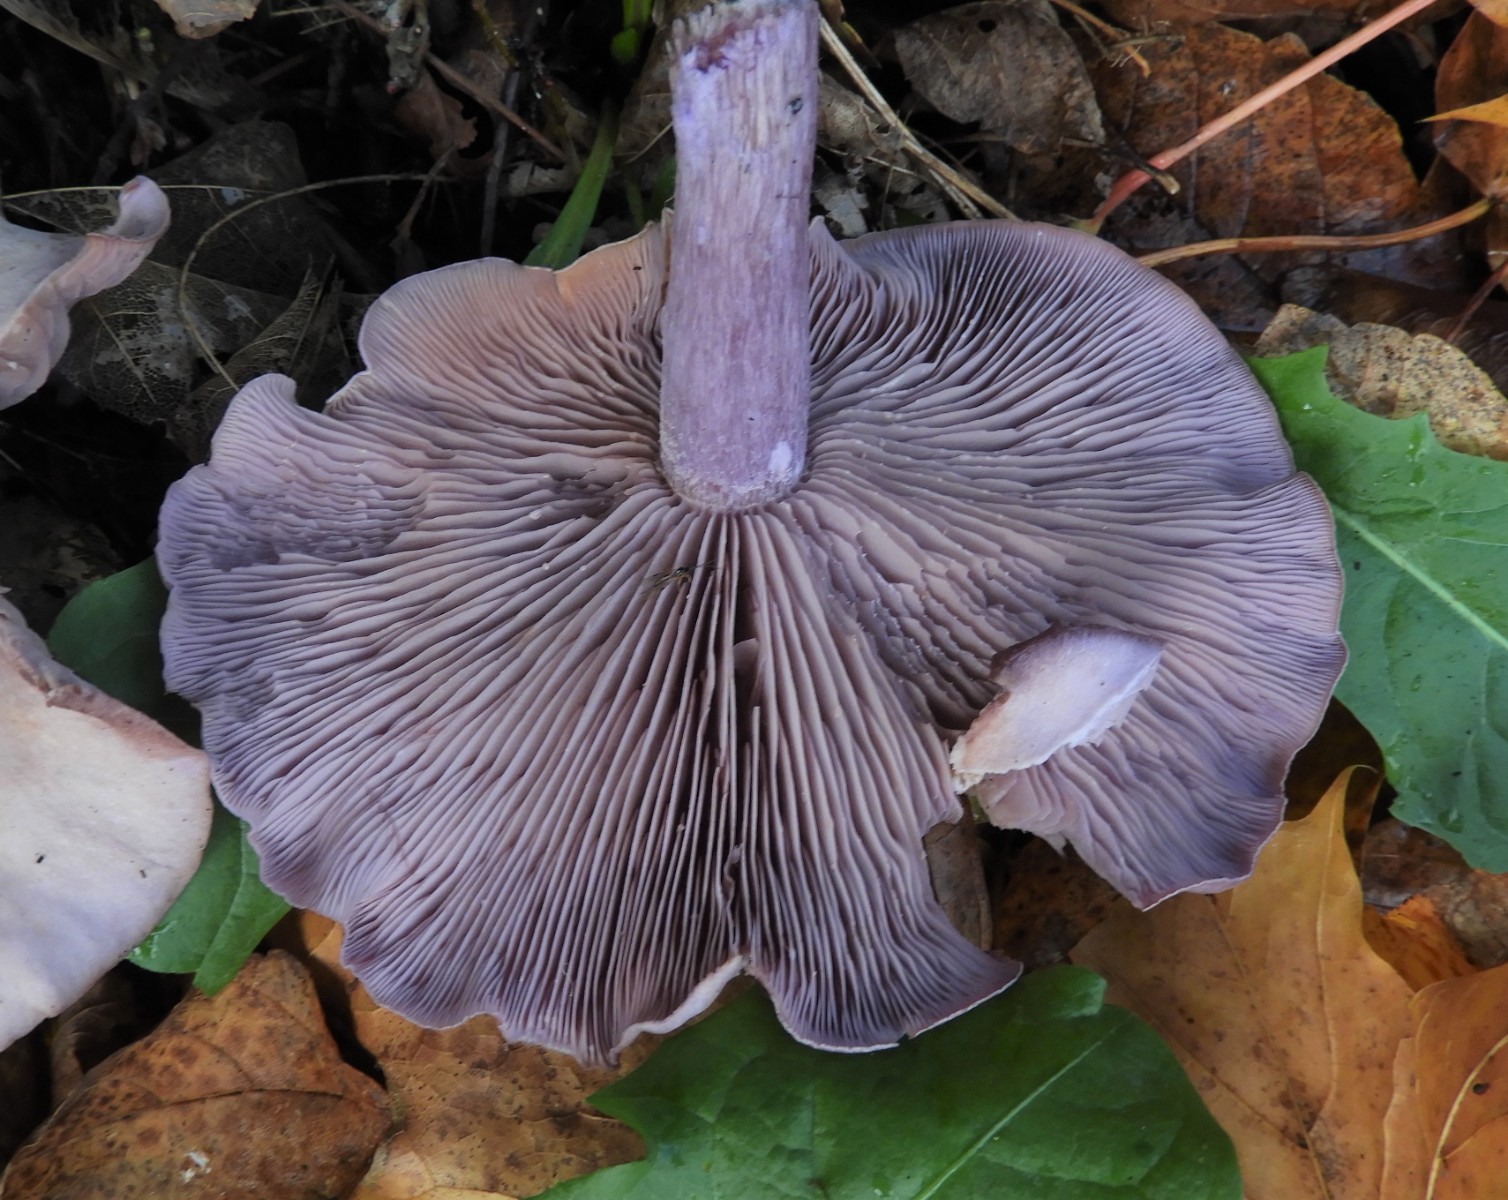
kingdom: Fungi
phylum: Basidiomycota
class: Agaricomycetes
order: Agaricales
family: Tricholomataceae
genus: Lepista
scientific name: Lepista nuda
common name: violet hekseringshat
